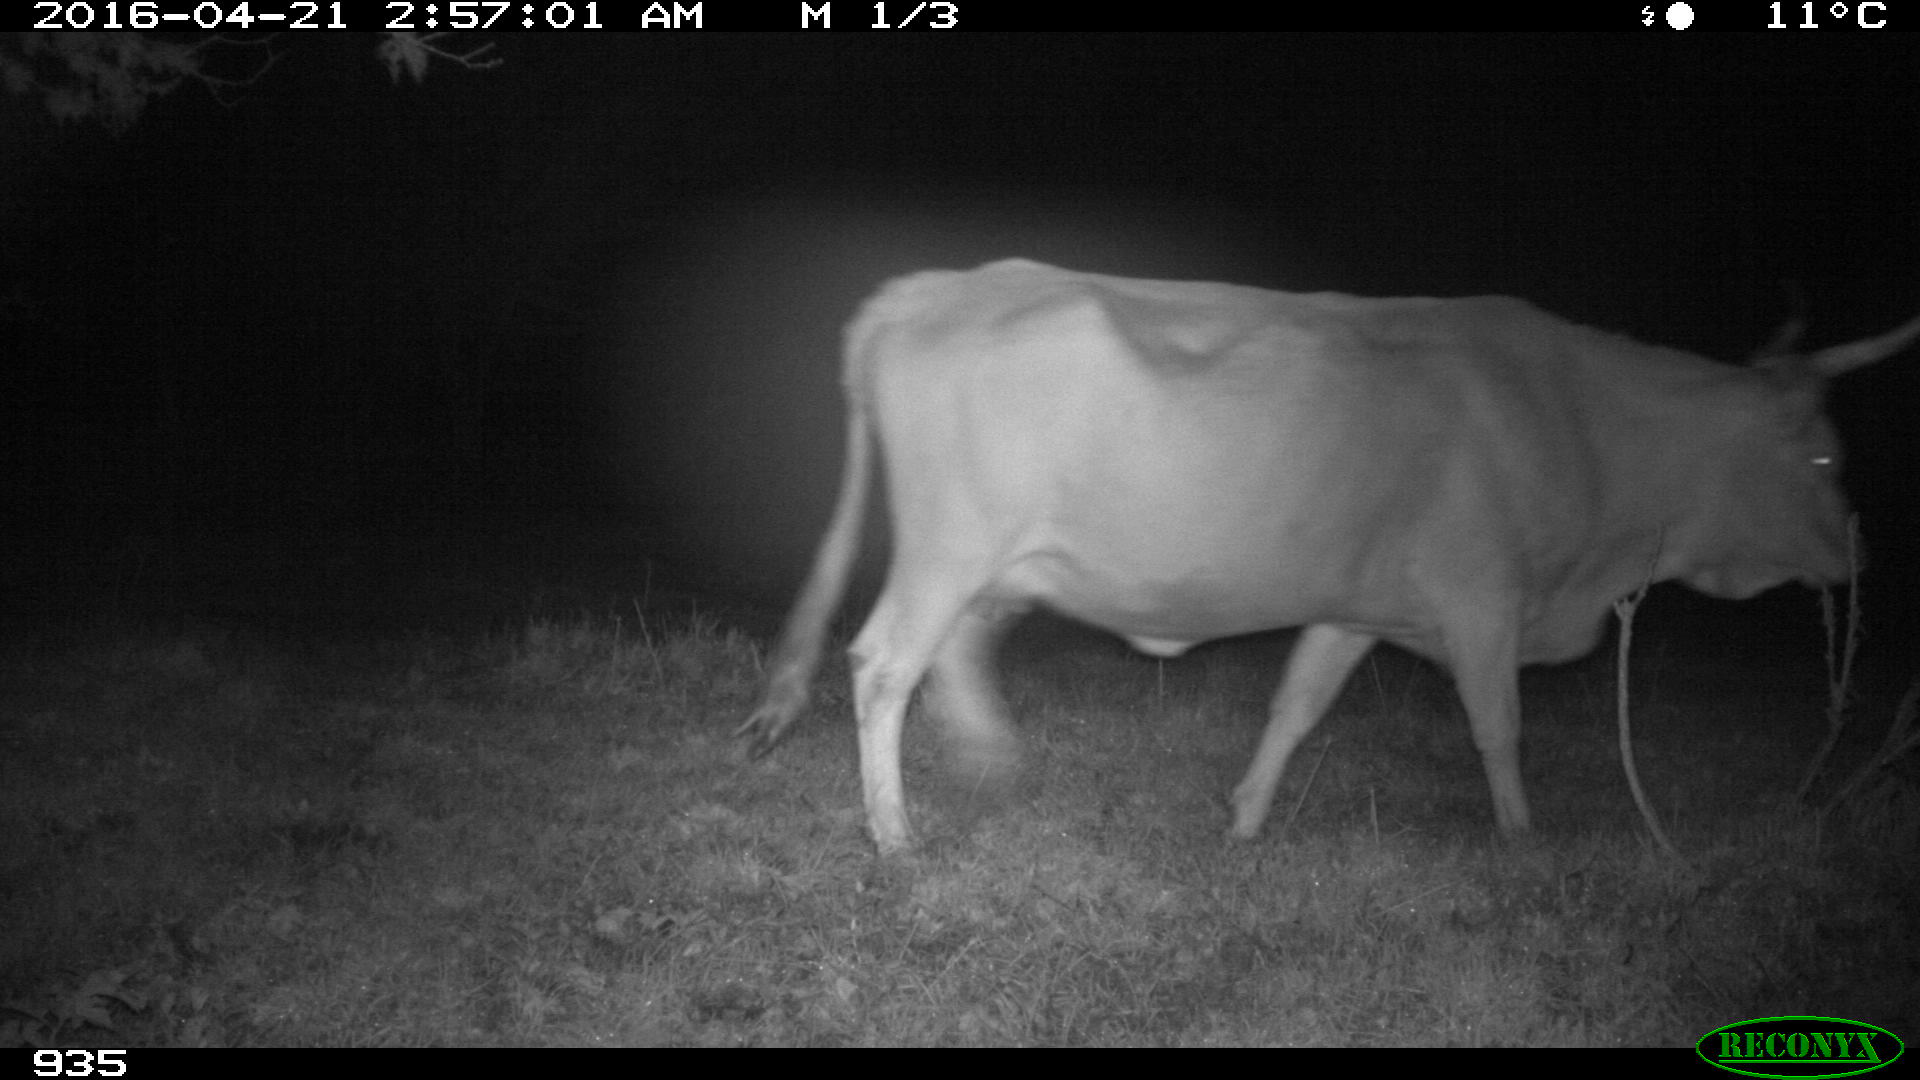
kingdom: Animalia
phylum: Chordata
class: Mammalia
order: Artiodactyla
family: Bovidae
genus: Bos
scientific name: Bos taurus
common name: Domesticated cattle
